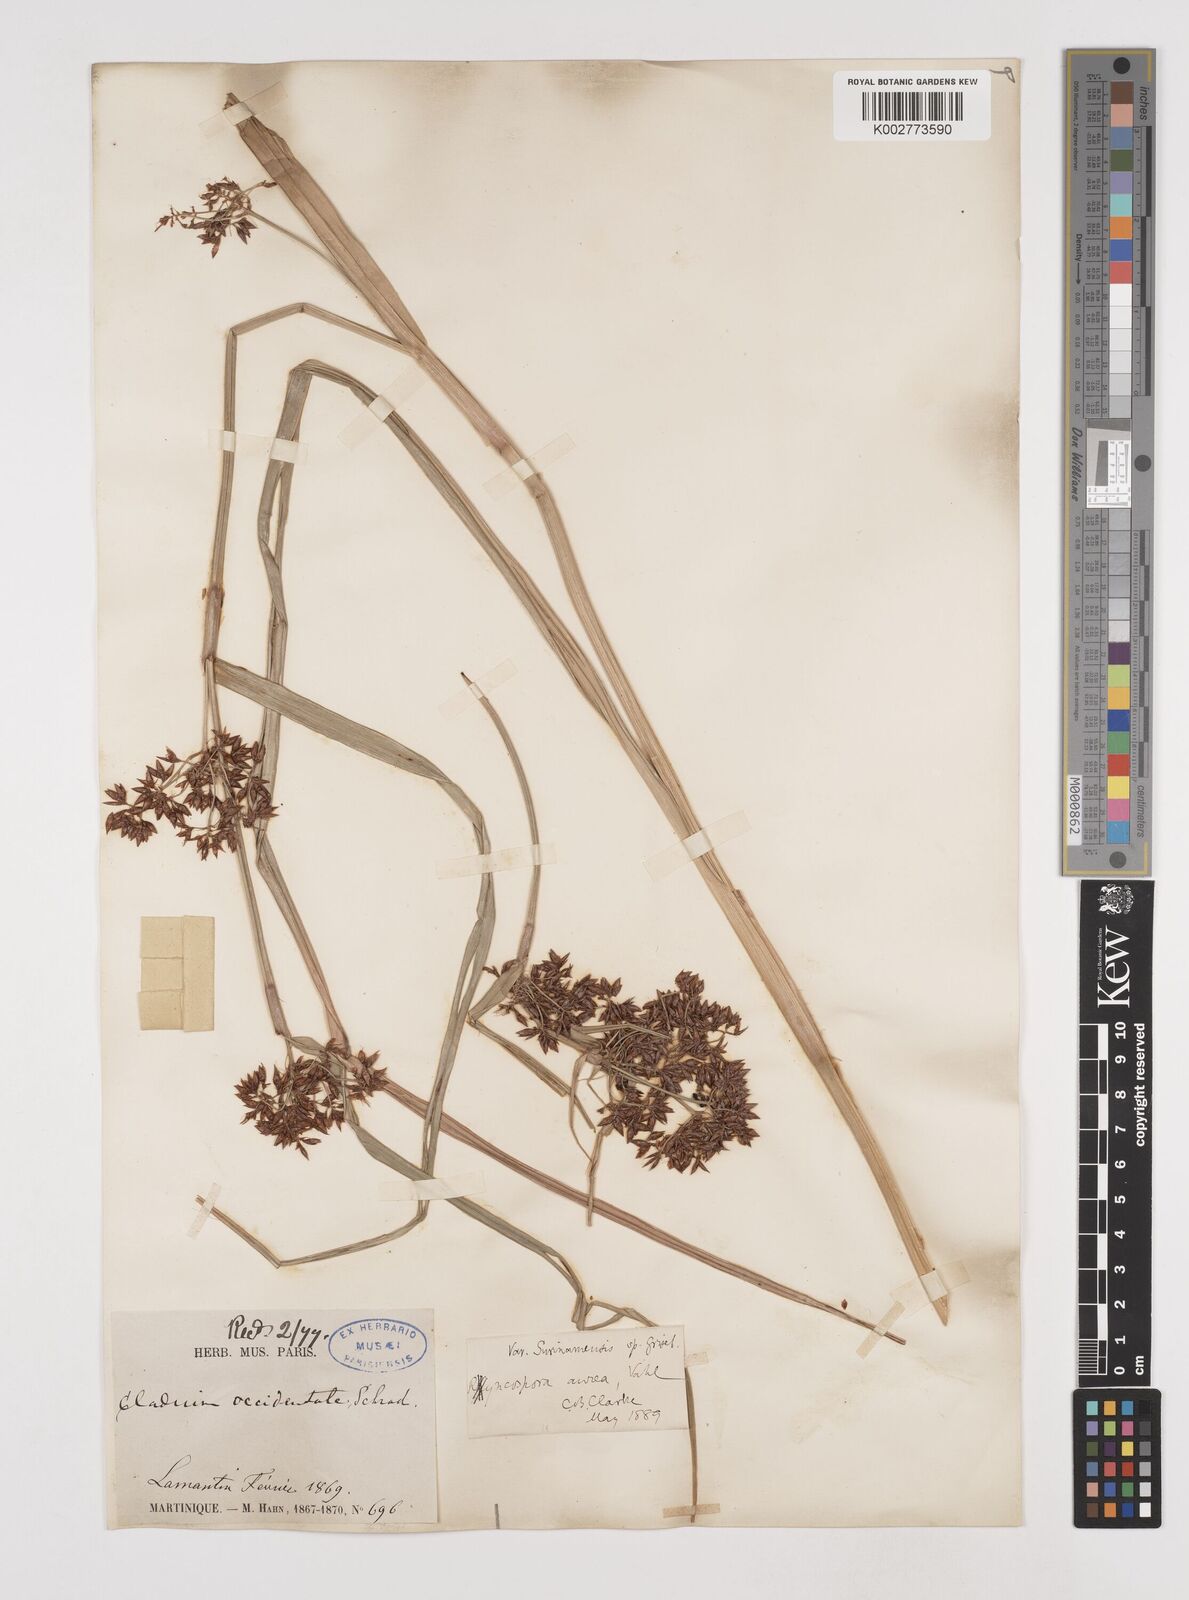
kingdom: Plantae
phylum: Tracheophyta
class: Liliopsida
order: Poales
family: Cyperaceae
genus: Rhynchospora
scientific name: Rhynchospora corymbosa
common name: Golden beak sedge
